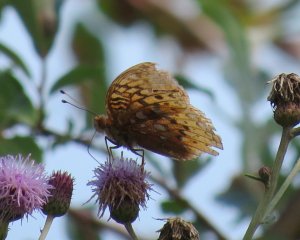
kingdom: Animalia
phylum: Arthropoda
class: Insecta
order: Lepidoptera
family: Nymphalidae
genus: Speyeria
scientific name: Speyeria cybele
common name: Great Spangled Fritillary
